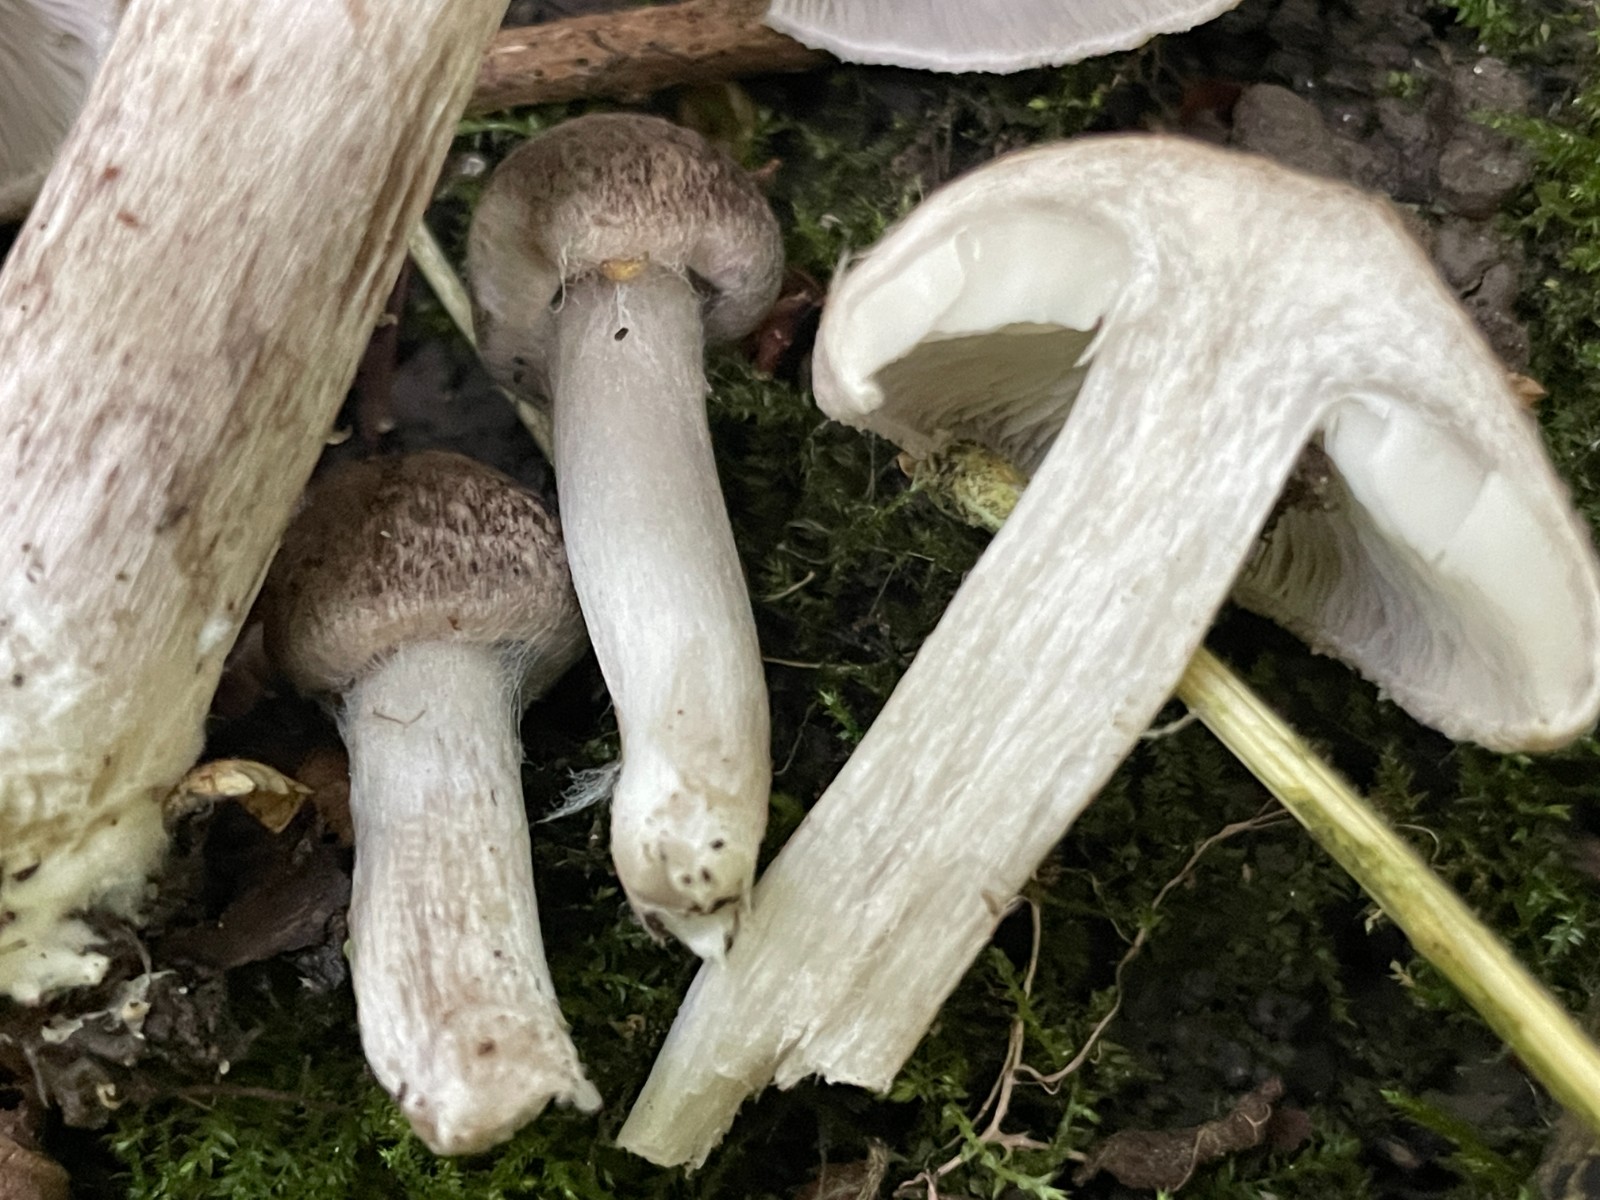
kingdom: Fungi
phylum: Basidiomycota
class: Agaricomycetes
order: Agaricales
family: Tricholomataceae
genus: Tricholoma
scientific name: Tricholoma argyraceum
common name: slør-ridderhat
